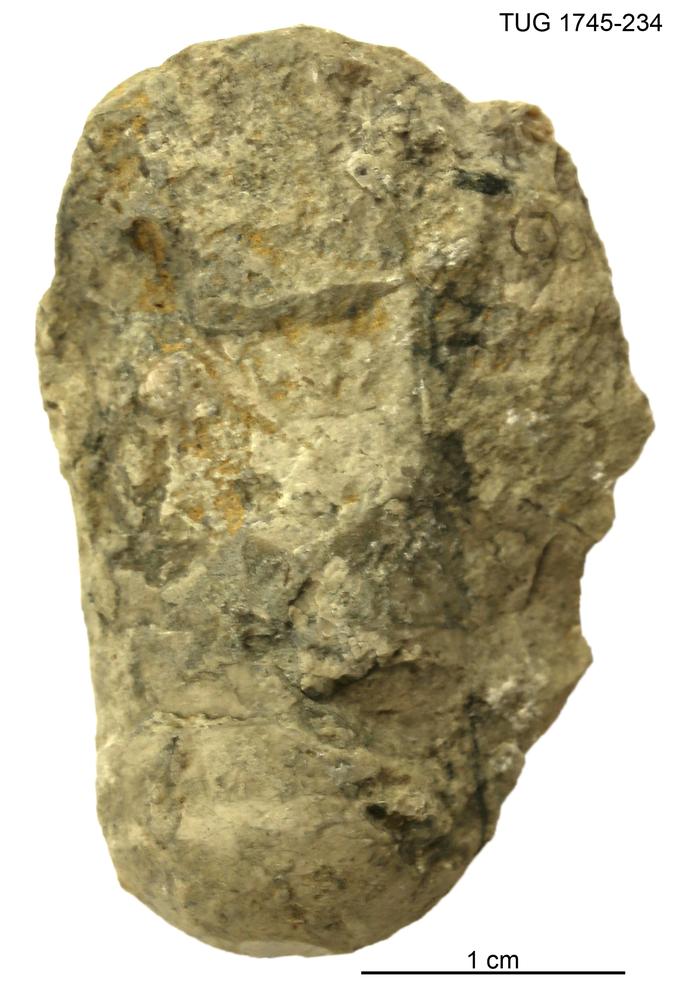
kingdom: Animalia
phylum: Mollusca
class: Cephalopoda
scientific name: Cephalopoda
